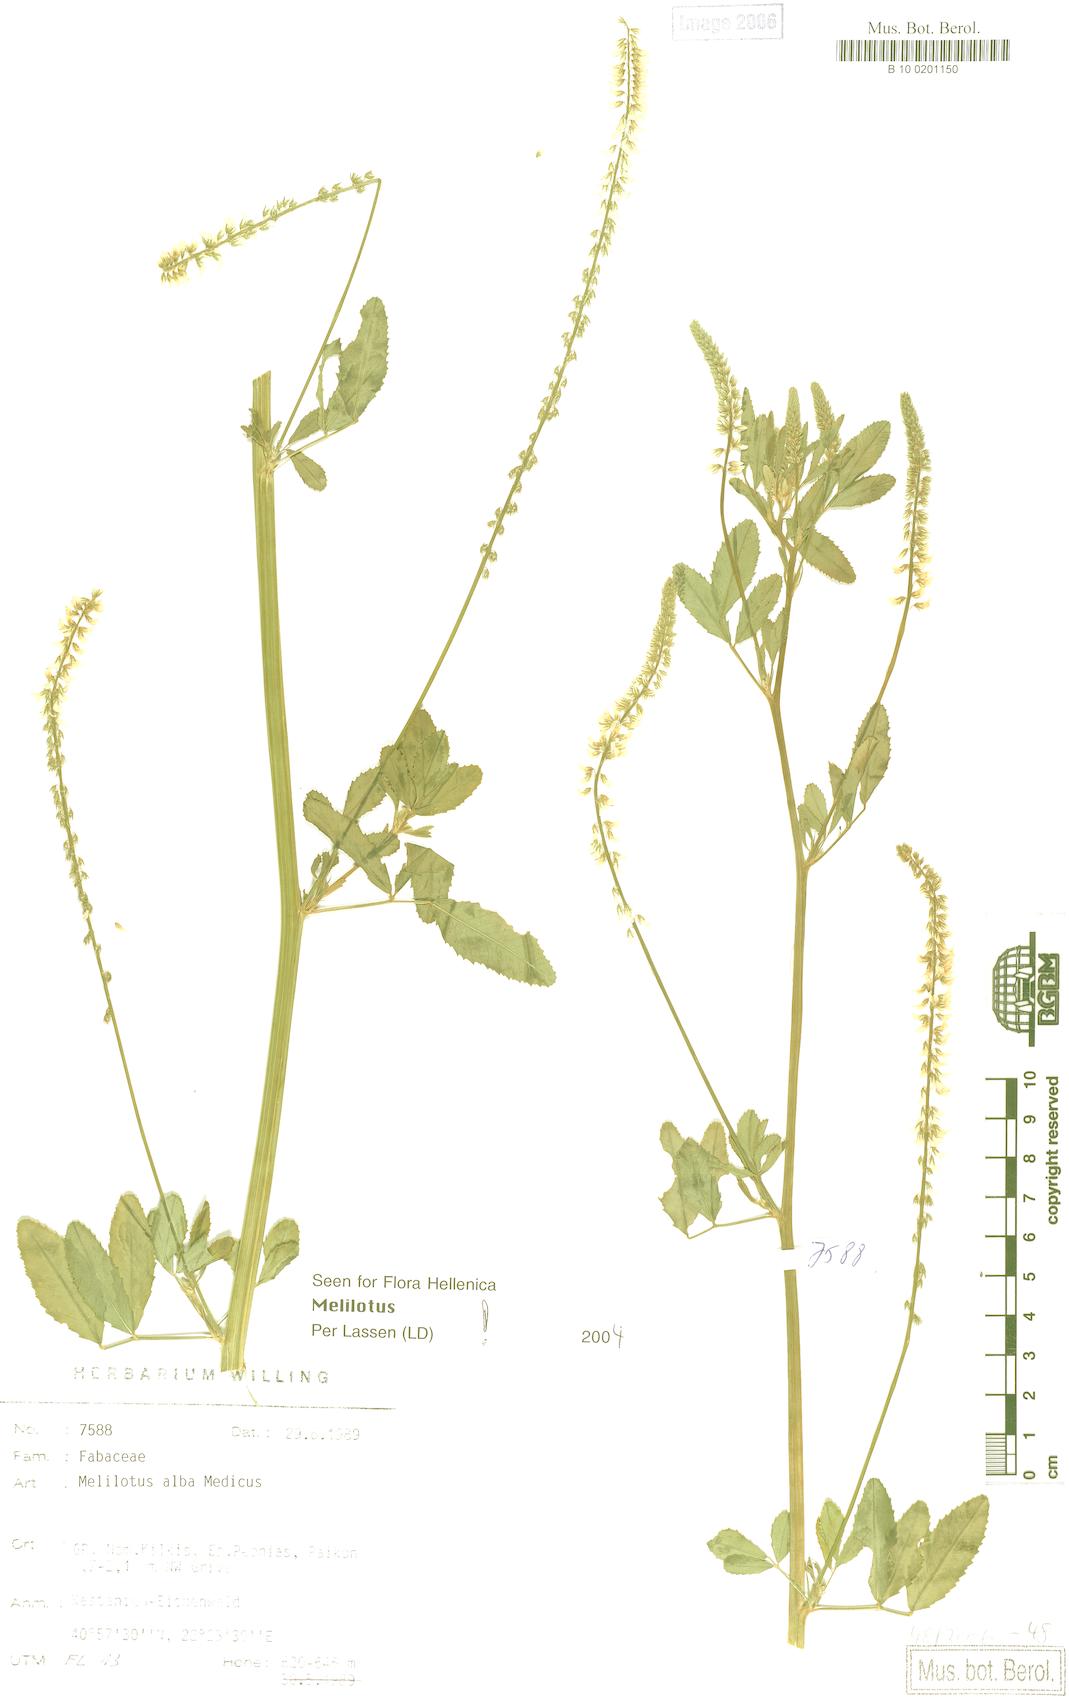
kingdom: Plantae
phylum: Tracheophyta
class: Magnoliopsida
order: Fabales
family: Fabaceae
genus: Melilotus
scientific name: Melilotus albus
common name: White melilot
